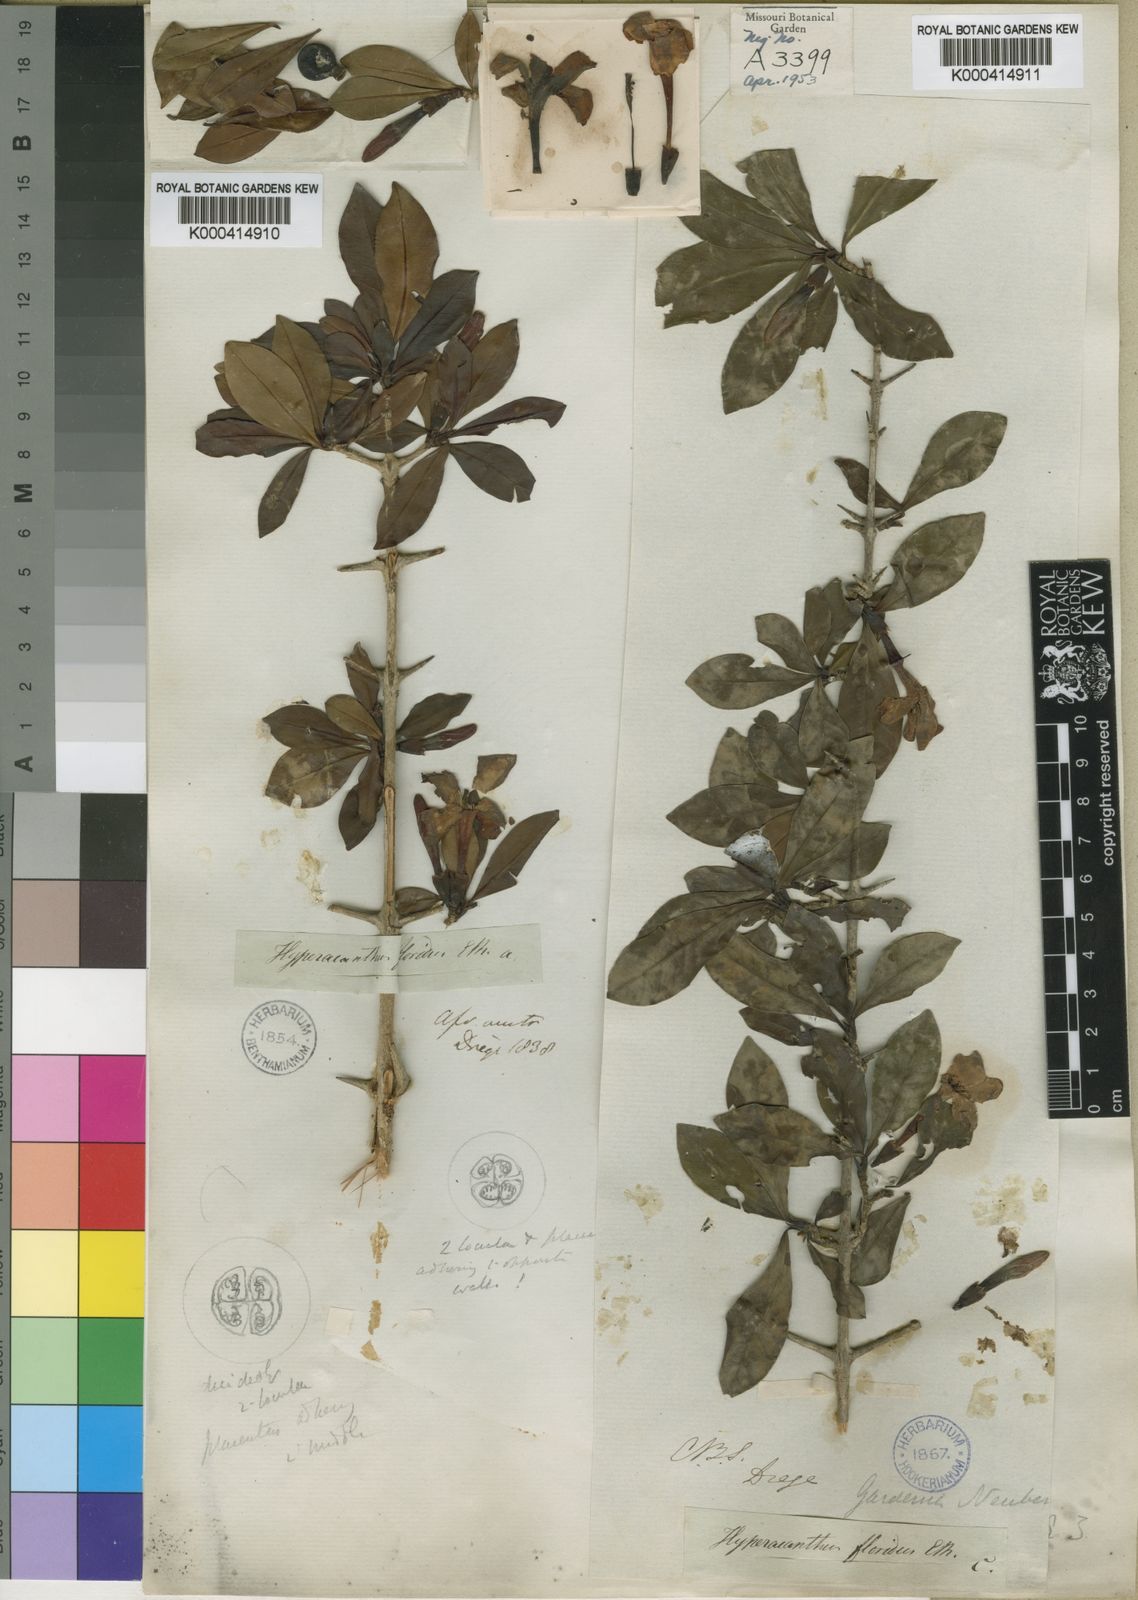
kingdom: Plantae
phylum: Tracheophyta
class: Magnoliopsida
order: Gentianales
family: Rubiaceae
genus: Hyperacanthus
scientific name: Hyperacanthus
